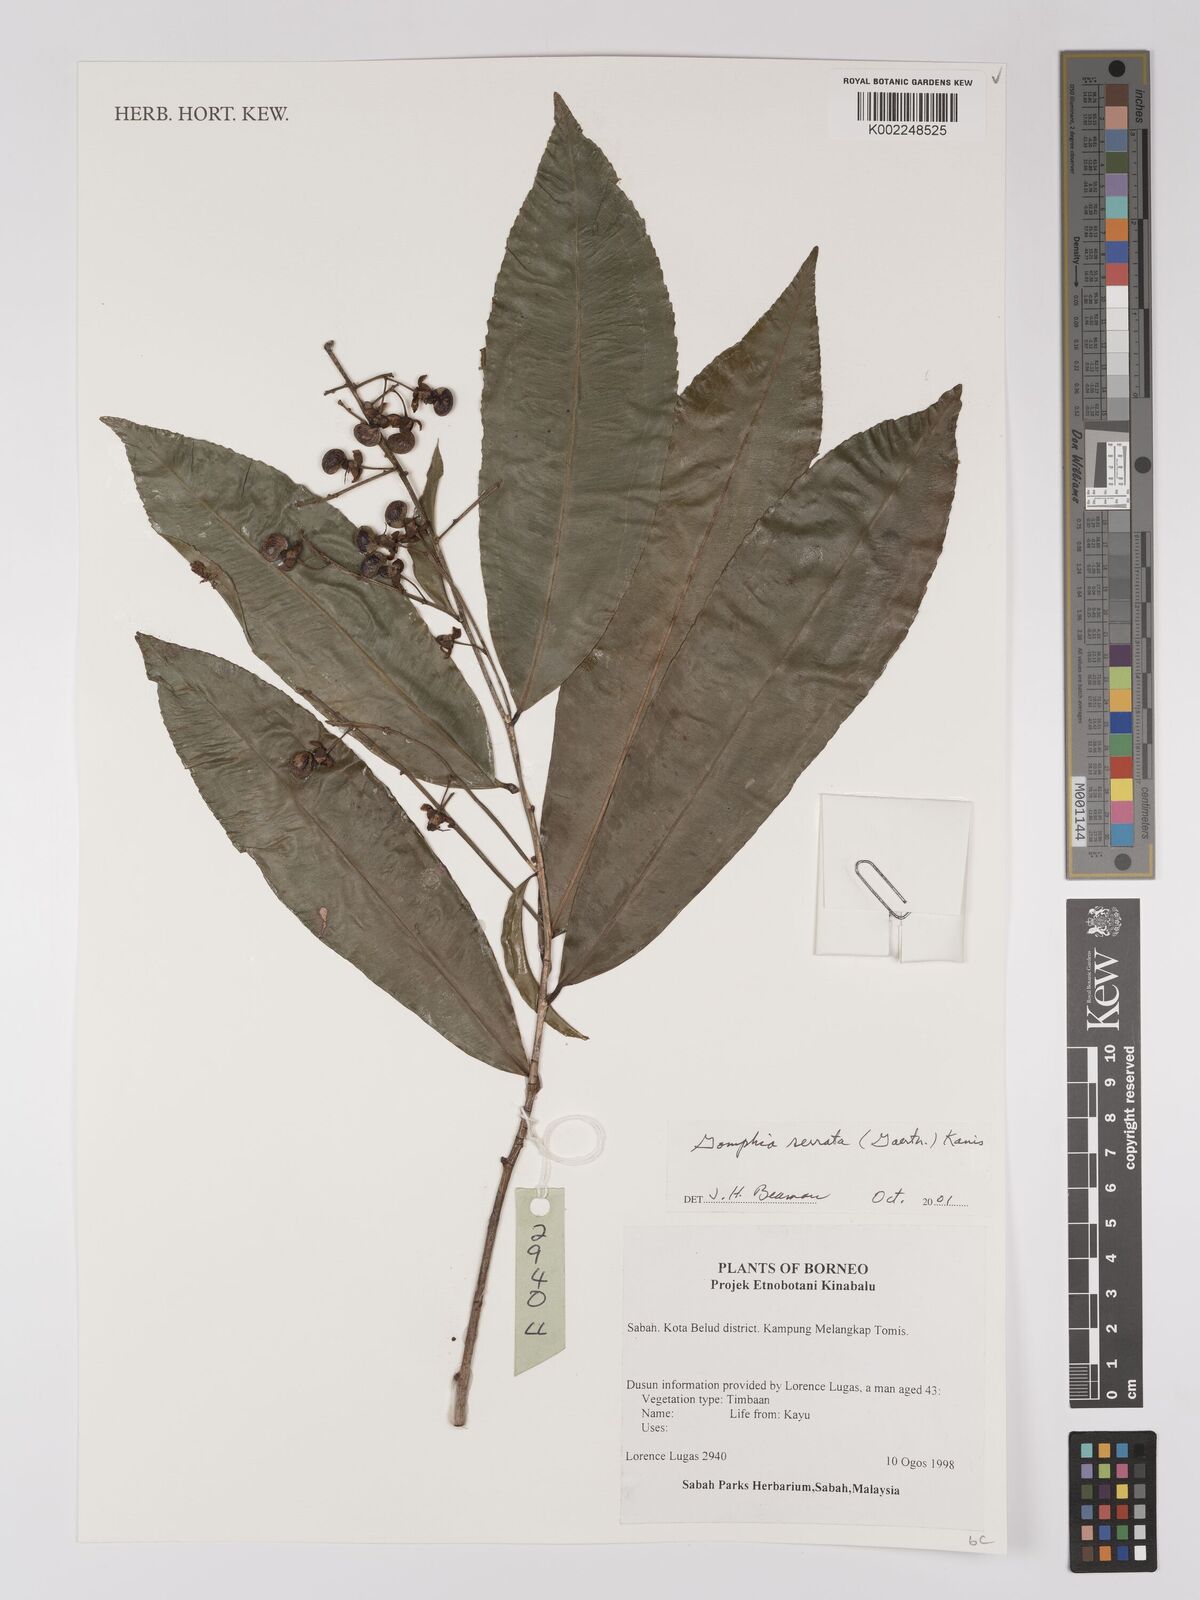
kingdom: Plantae
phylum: Tracheophyta
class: Magnoliopsida
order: Malpighiales
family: Ochnaceae
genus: Gomphia
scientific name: Gomphia serrata
